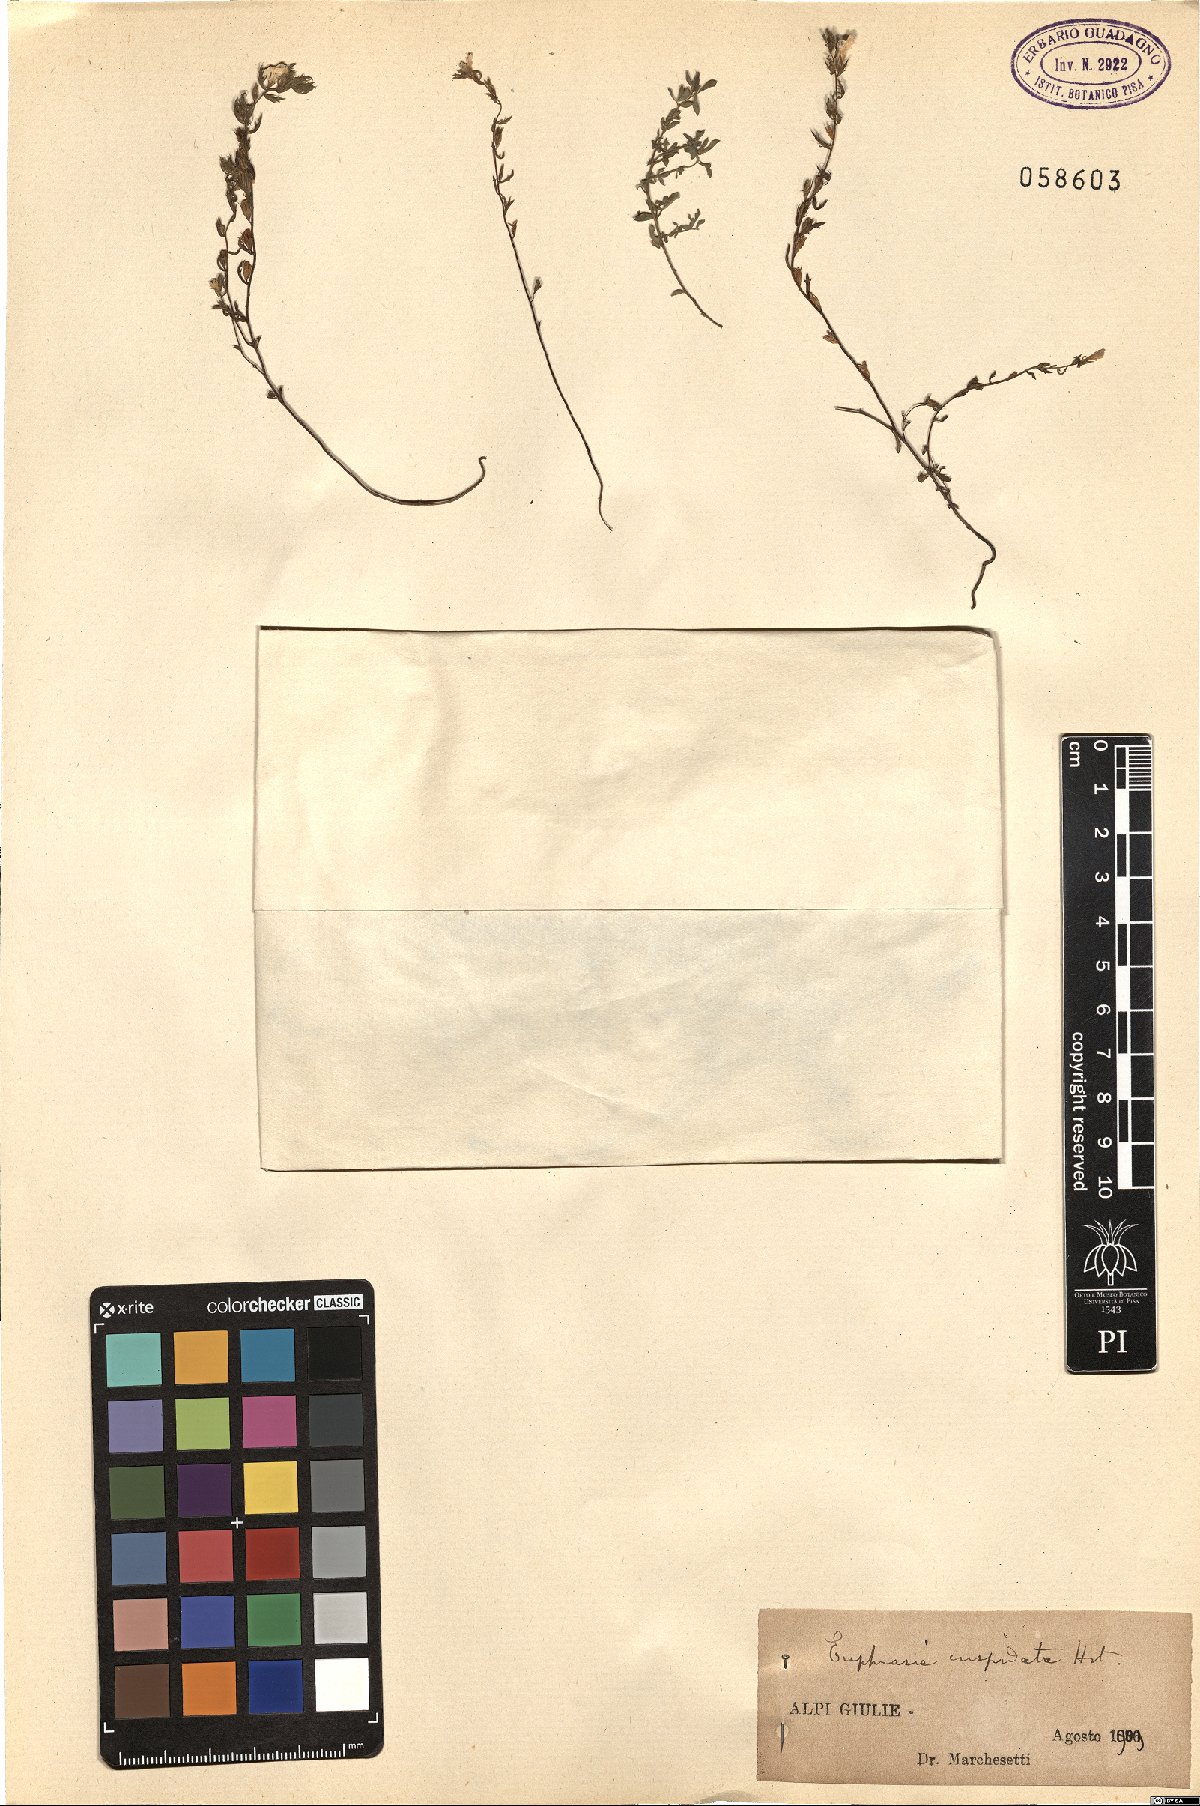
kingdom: Plantae
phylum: Tracheophyta
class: Magnoliopsida
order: Lamiales
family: Orobanchaceae
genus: Euphrasia
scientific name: Euphrasia cuspidata
